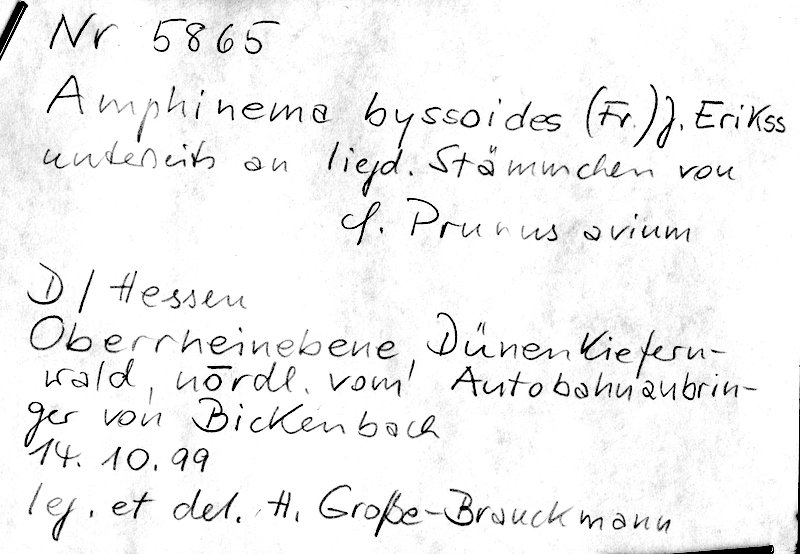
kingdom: Plantae
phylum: Tracheophyta
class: Magnoliopsida
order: Rosales
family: Rosaceae
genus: Prunus
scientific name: Prunus avium
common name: Sweet cherry
